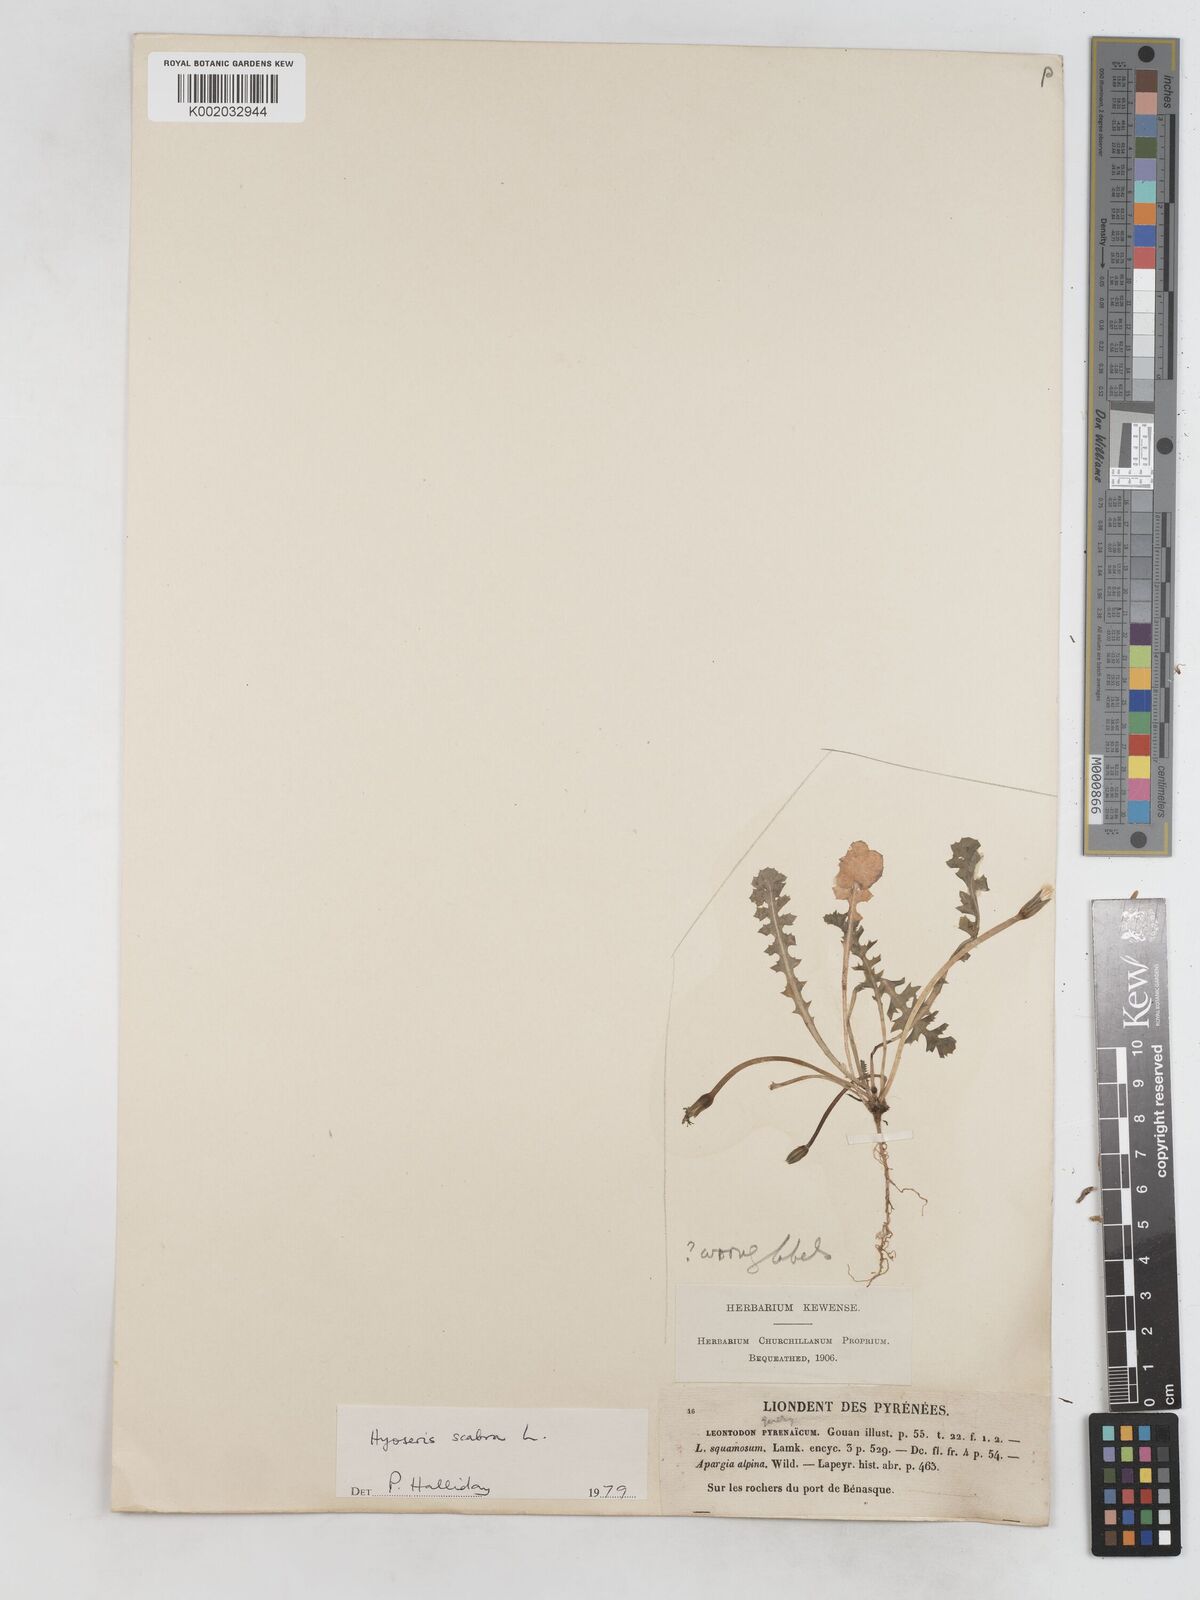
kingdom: Plantae
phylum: Tracheophyta
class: Magnoliopsida
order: Asterales
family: Asteraceae
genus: Hyoseris
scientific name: Hyoseris scabra
